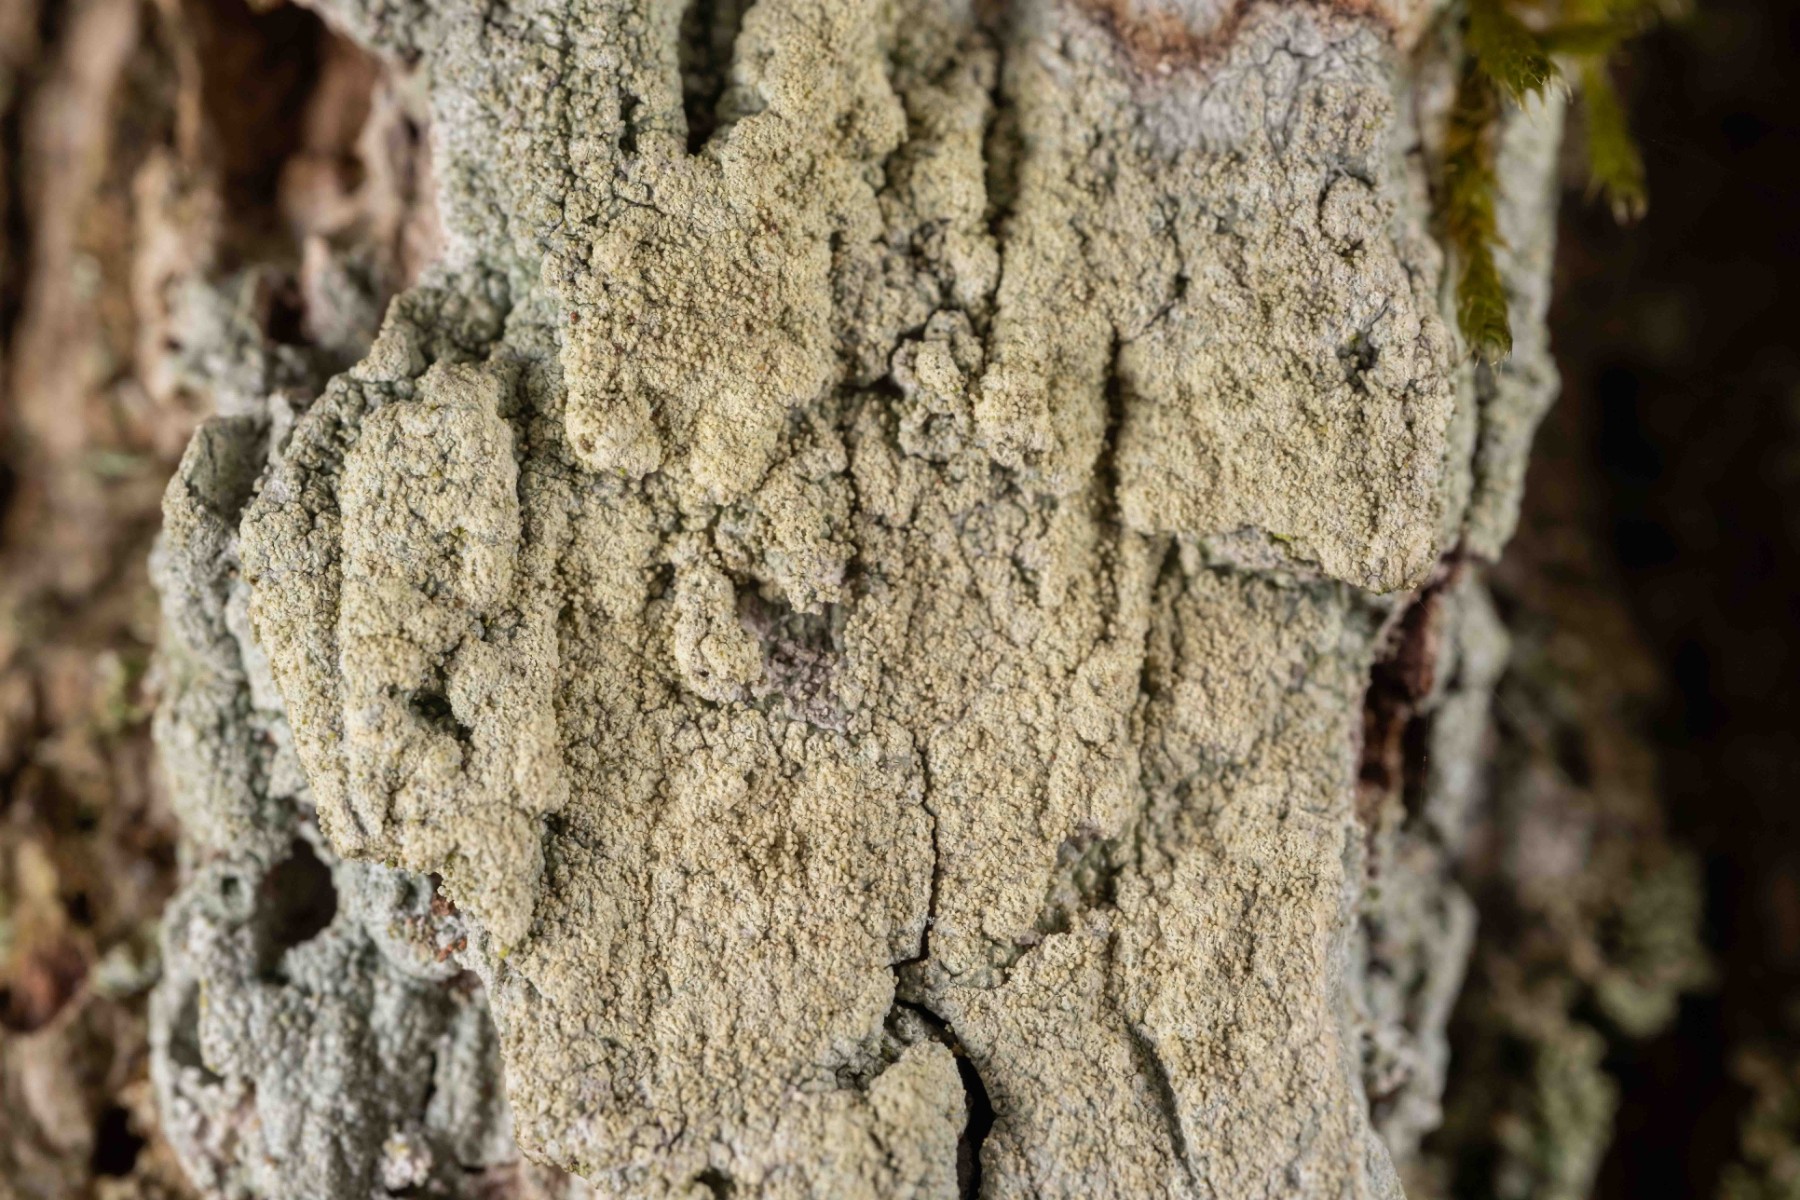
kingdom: Fungi
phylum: Ascomycota
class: Lecanoromycetes
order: Pertusariales
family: Pertusariaceae
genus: Pertusaria
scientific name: Pertusaria flavida
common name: gul prikvortelav
